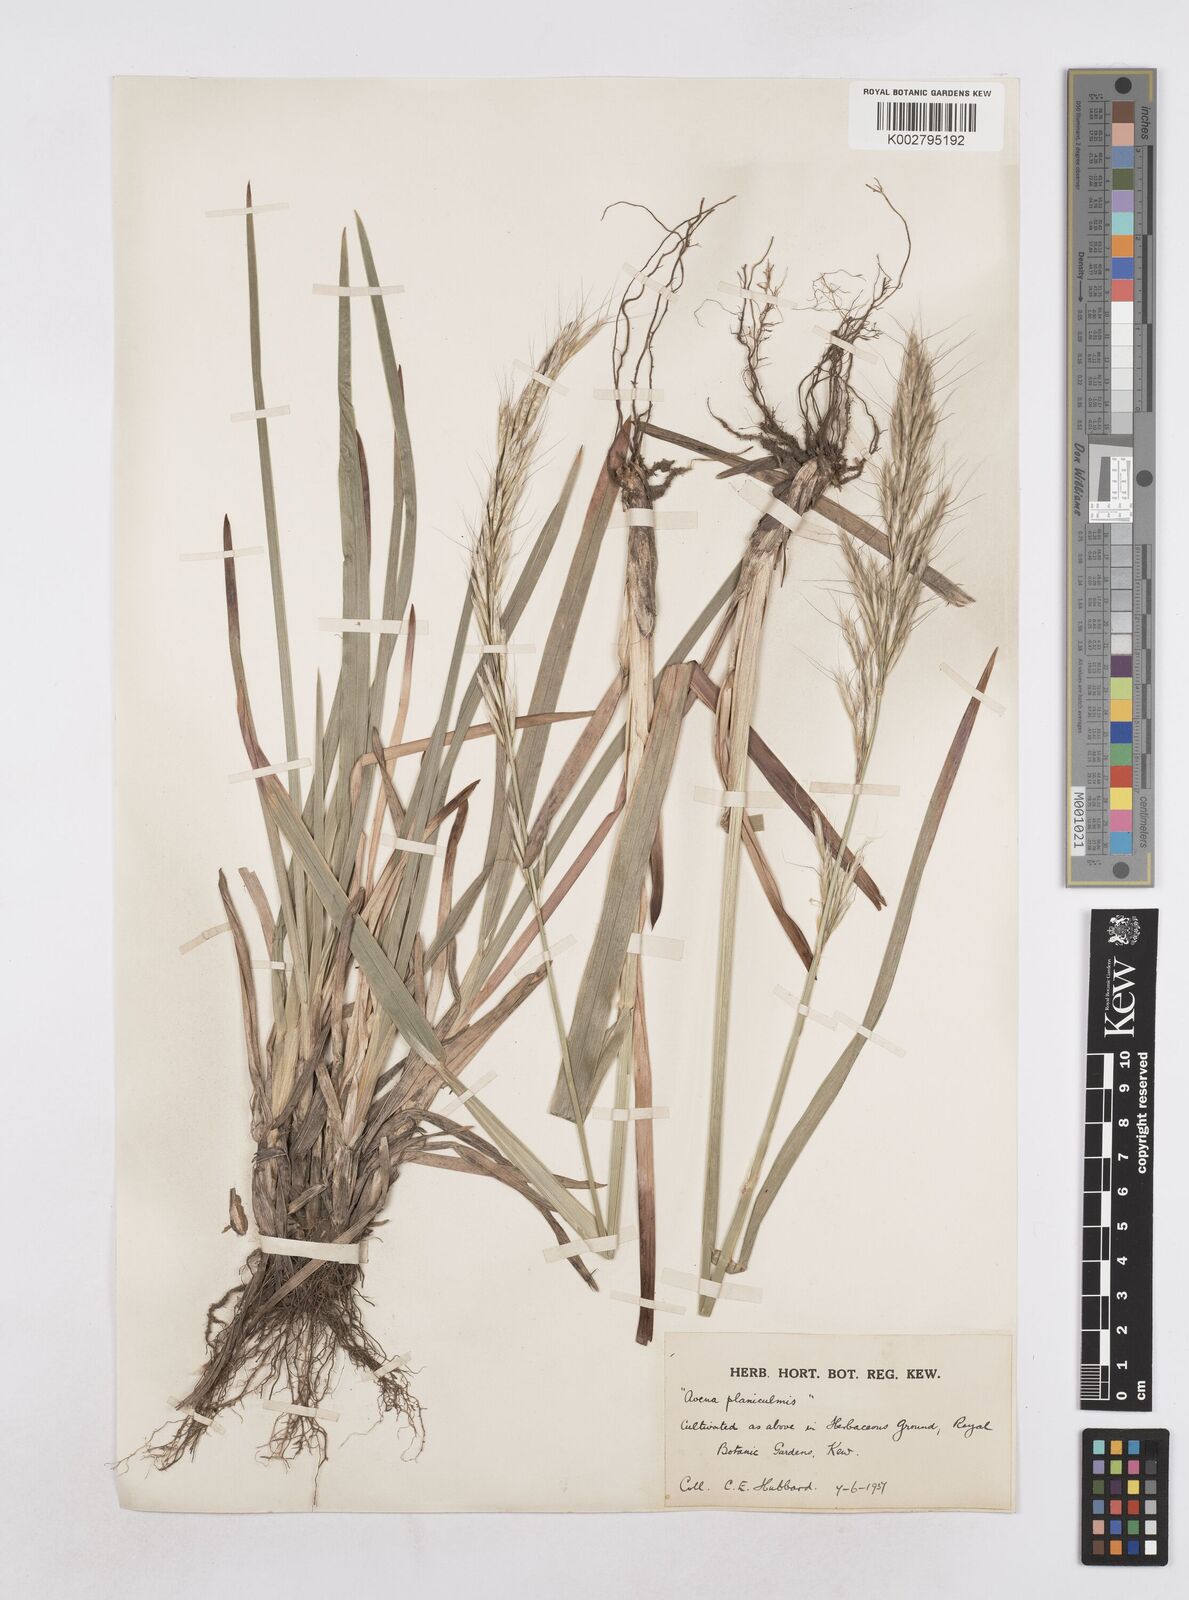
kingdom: Plantae
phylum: Tracheophyta
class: Liliopsida
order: Poales
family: Poaceae
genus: Helictochloa
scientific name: Helictochloa planiculmis
